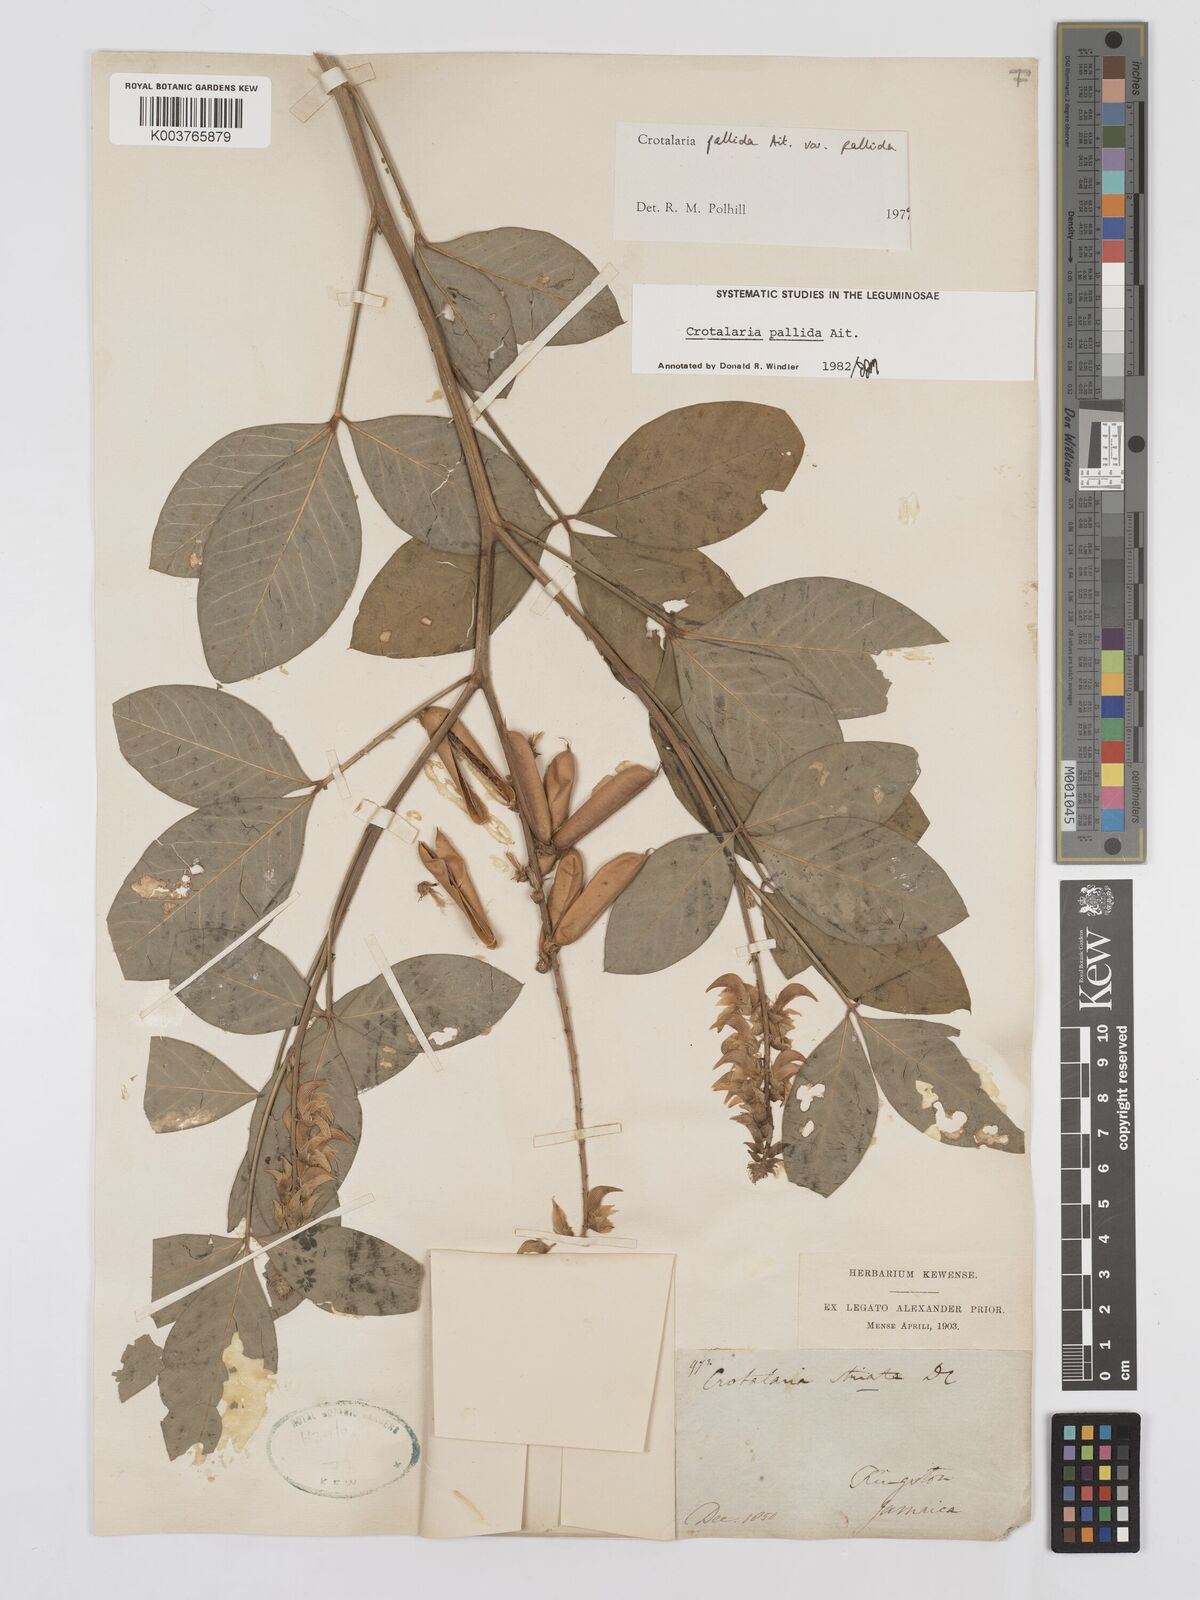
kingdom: Plantae
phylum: Tracheophyta
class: Magnoliopsida
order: Fabales
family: Fabaceae
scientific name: Fabaceae
